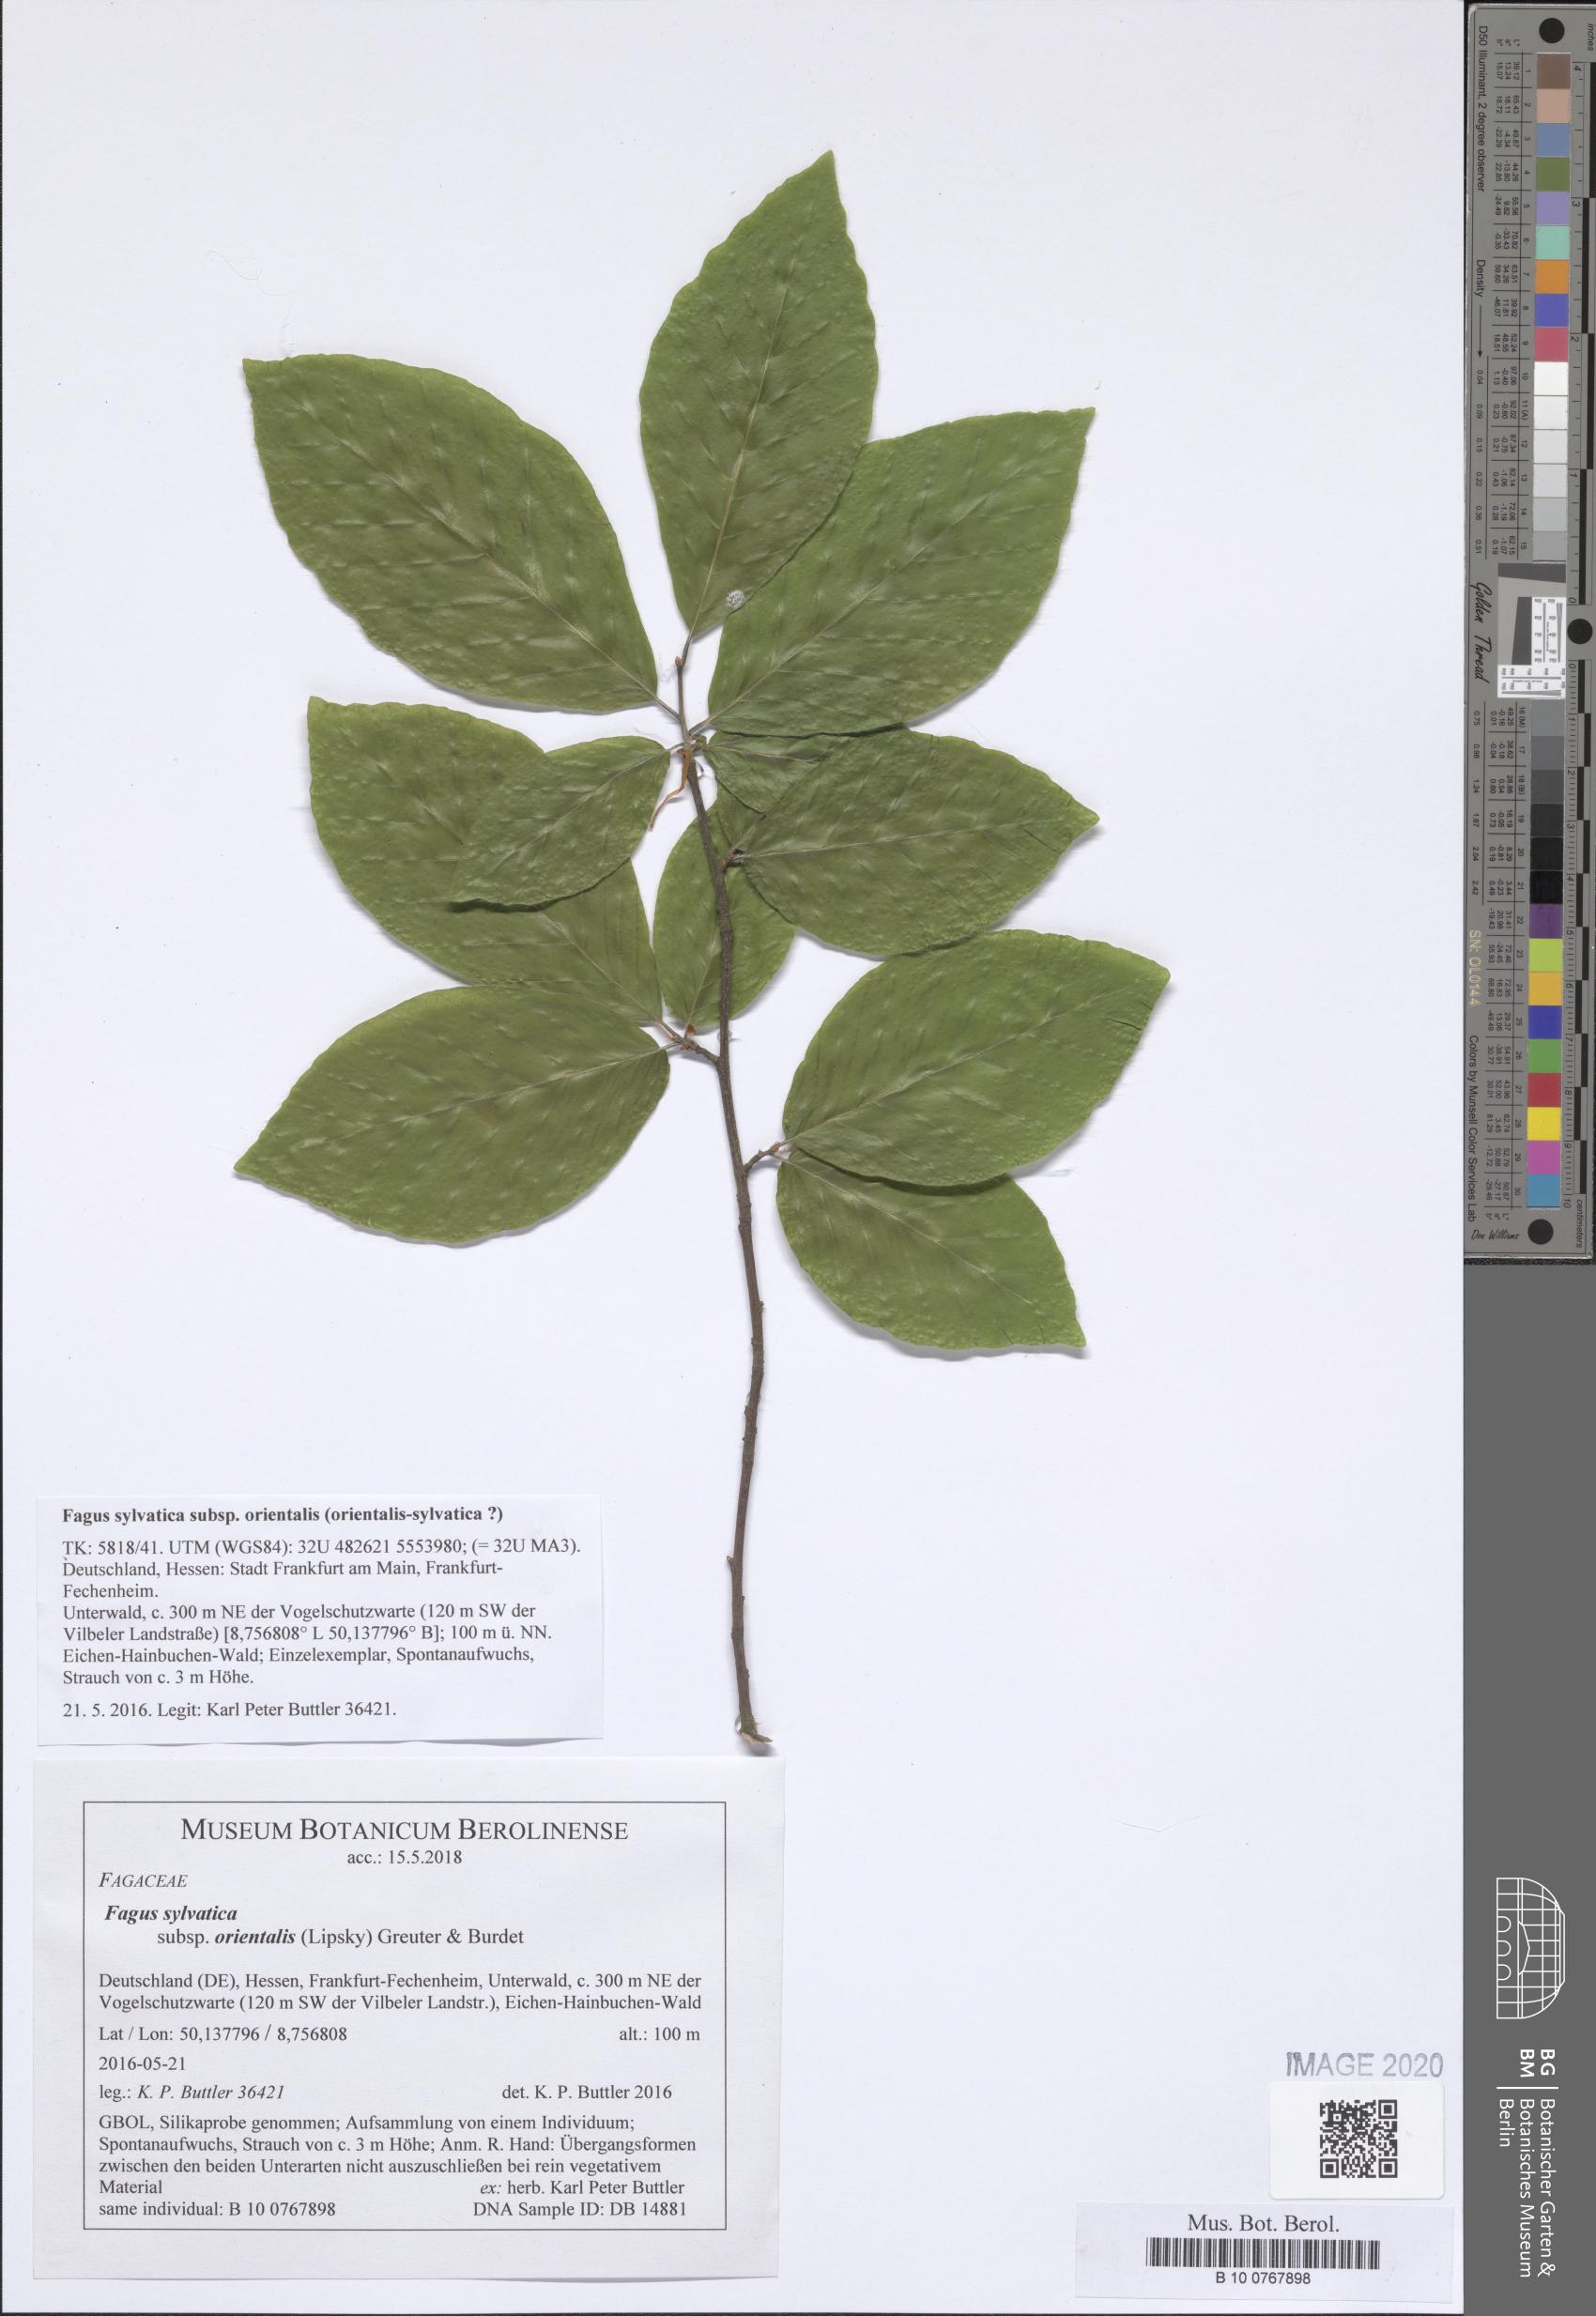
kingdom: Plantae
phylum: Tracheophyta
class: Magnoliopsida
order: Fagales
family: Fagaceae
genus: Fagus
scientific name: Fagus orientalis
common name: Oriental beech
